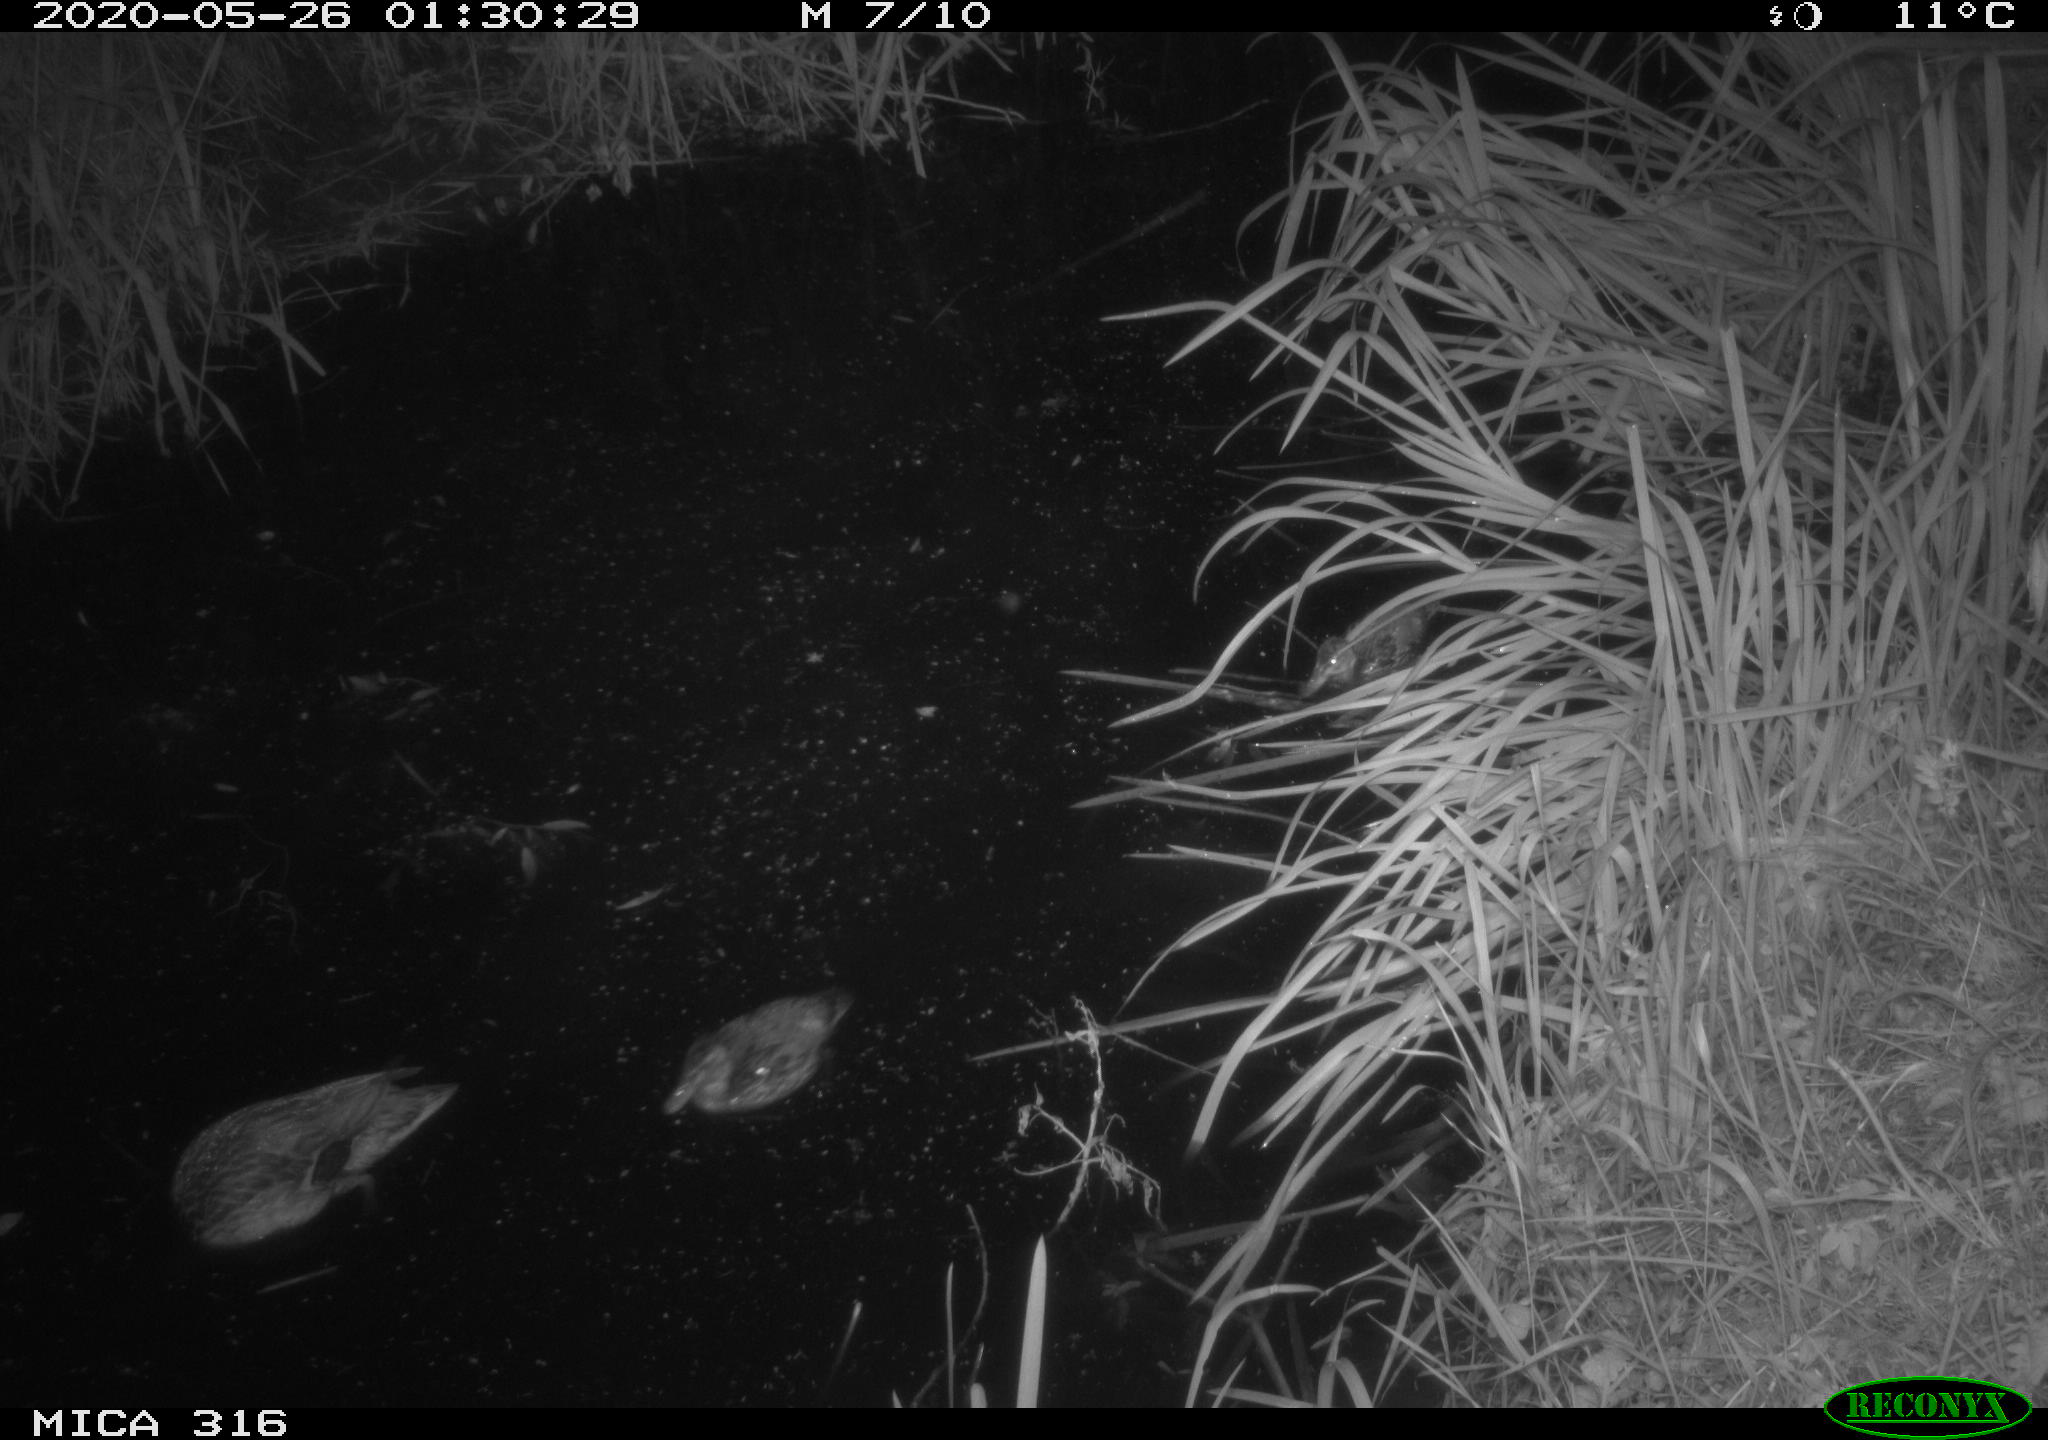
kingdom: Animalia
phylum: Chordata
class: Aves
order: Anseriformes
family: Anatidae
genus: Anas
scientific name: Anas platyrhynchos
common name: Mallard
